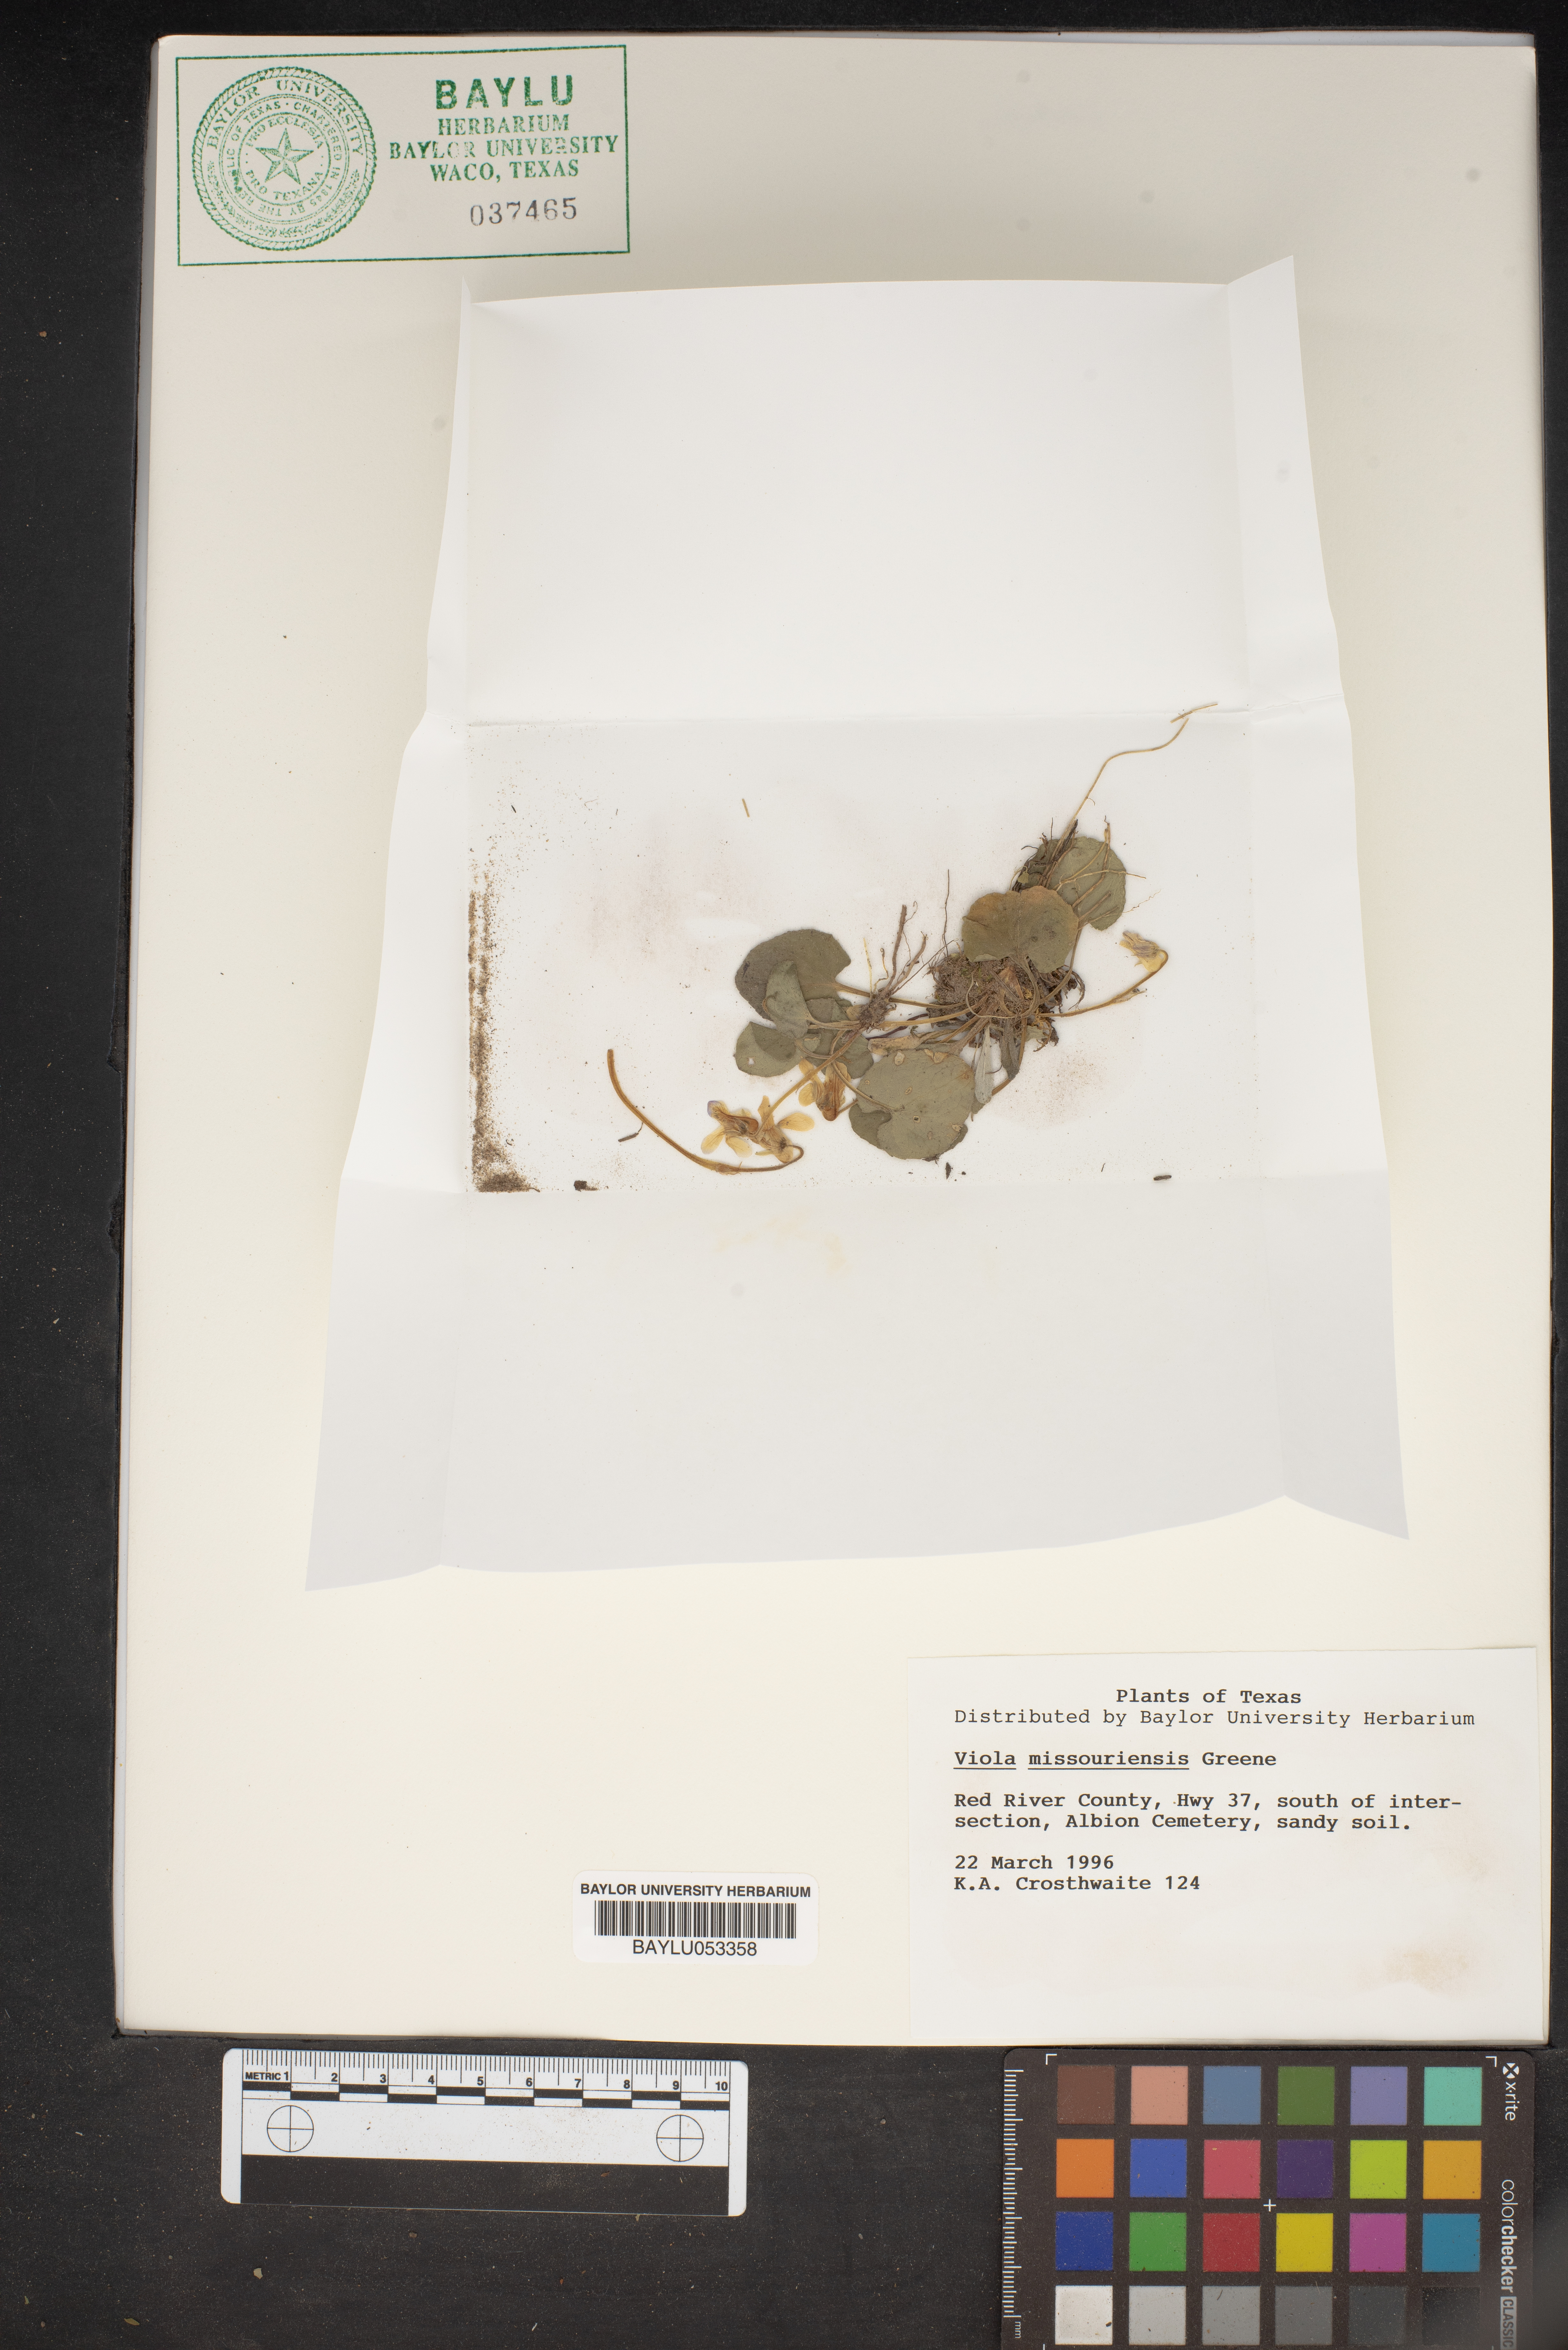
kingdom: Plantae
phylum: Tracheophyta
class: Magnoliopsida
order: Malpighiales
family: Violaceae
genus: Viola
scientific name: Viola missouriensis
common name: Missouri violet
